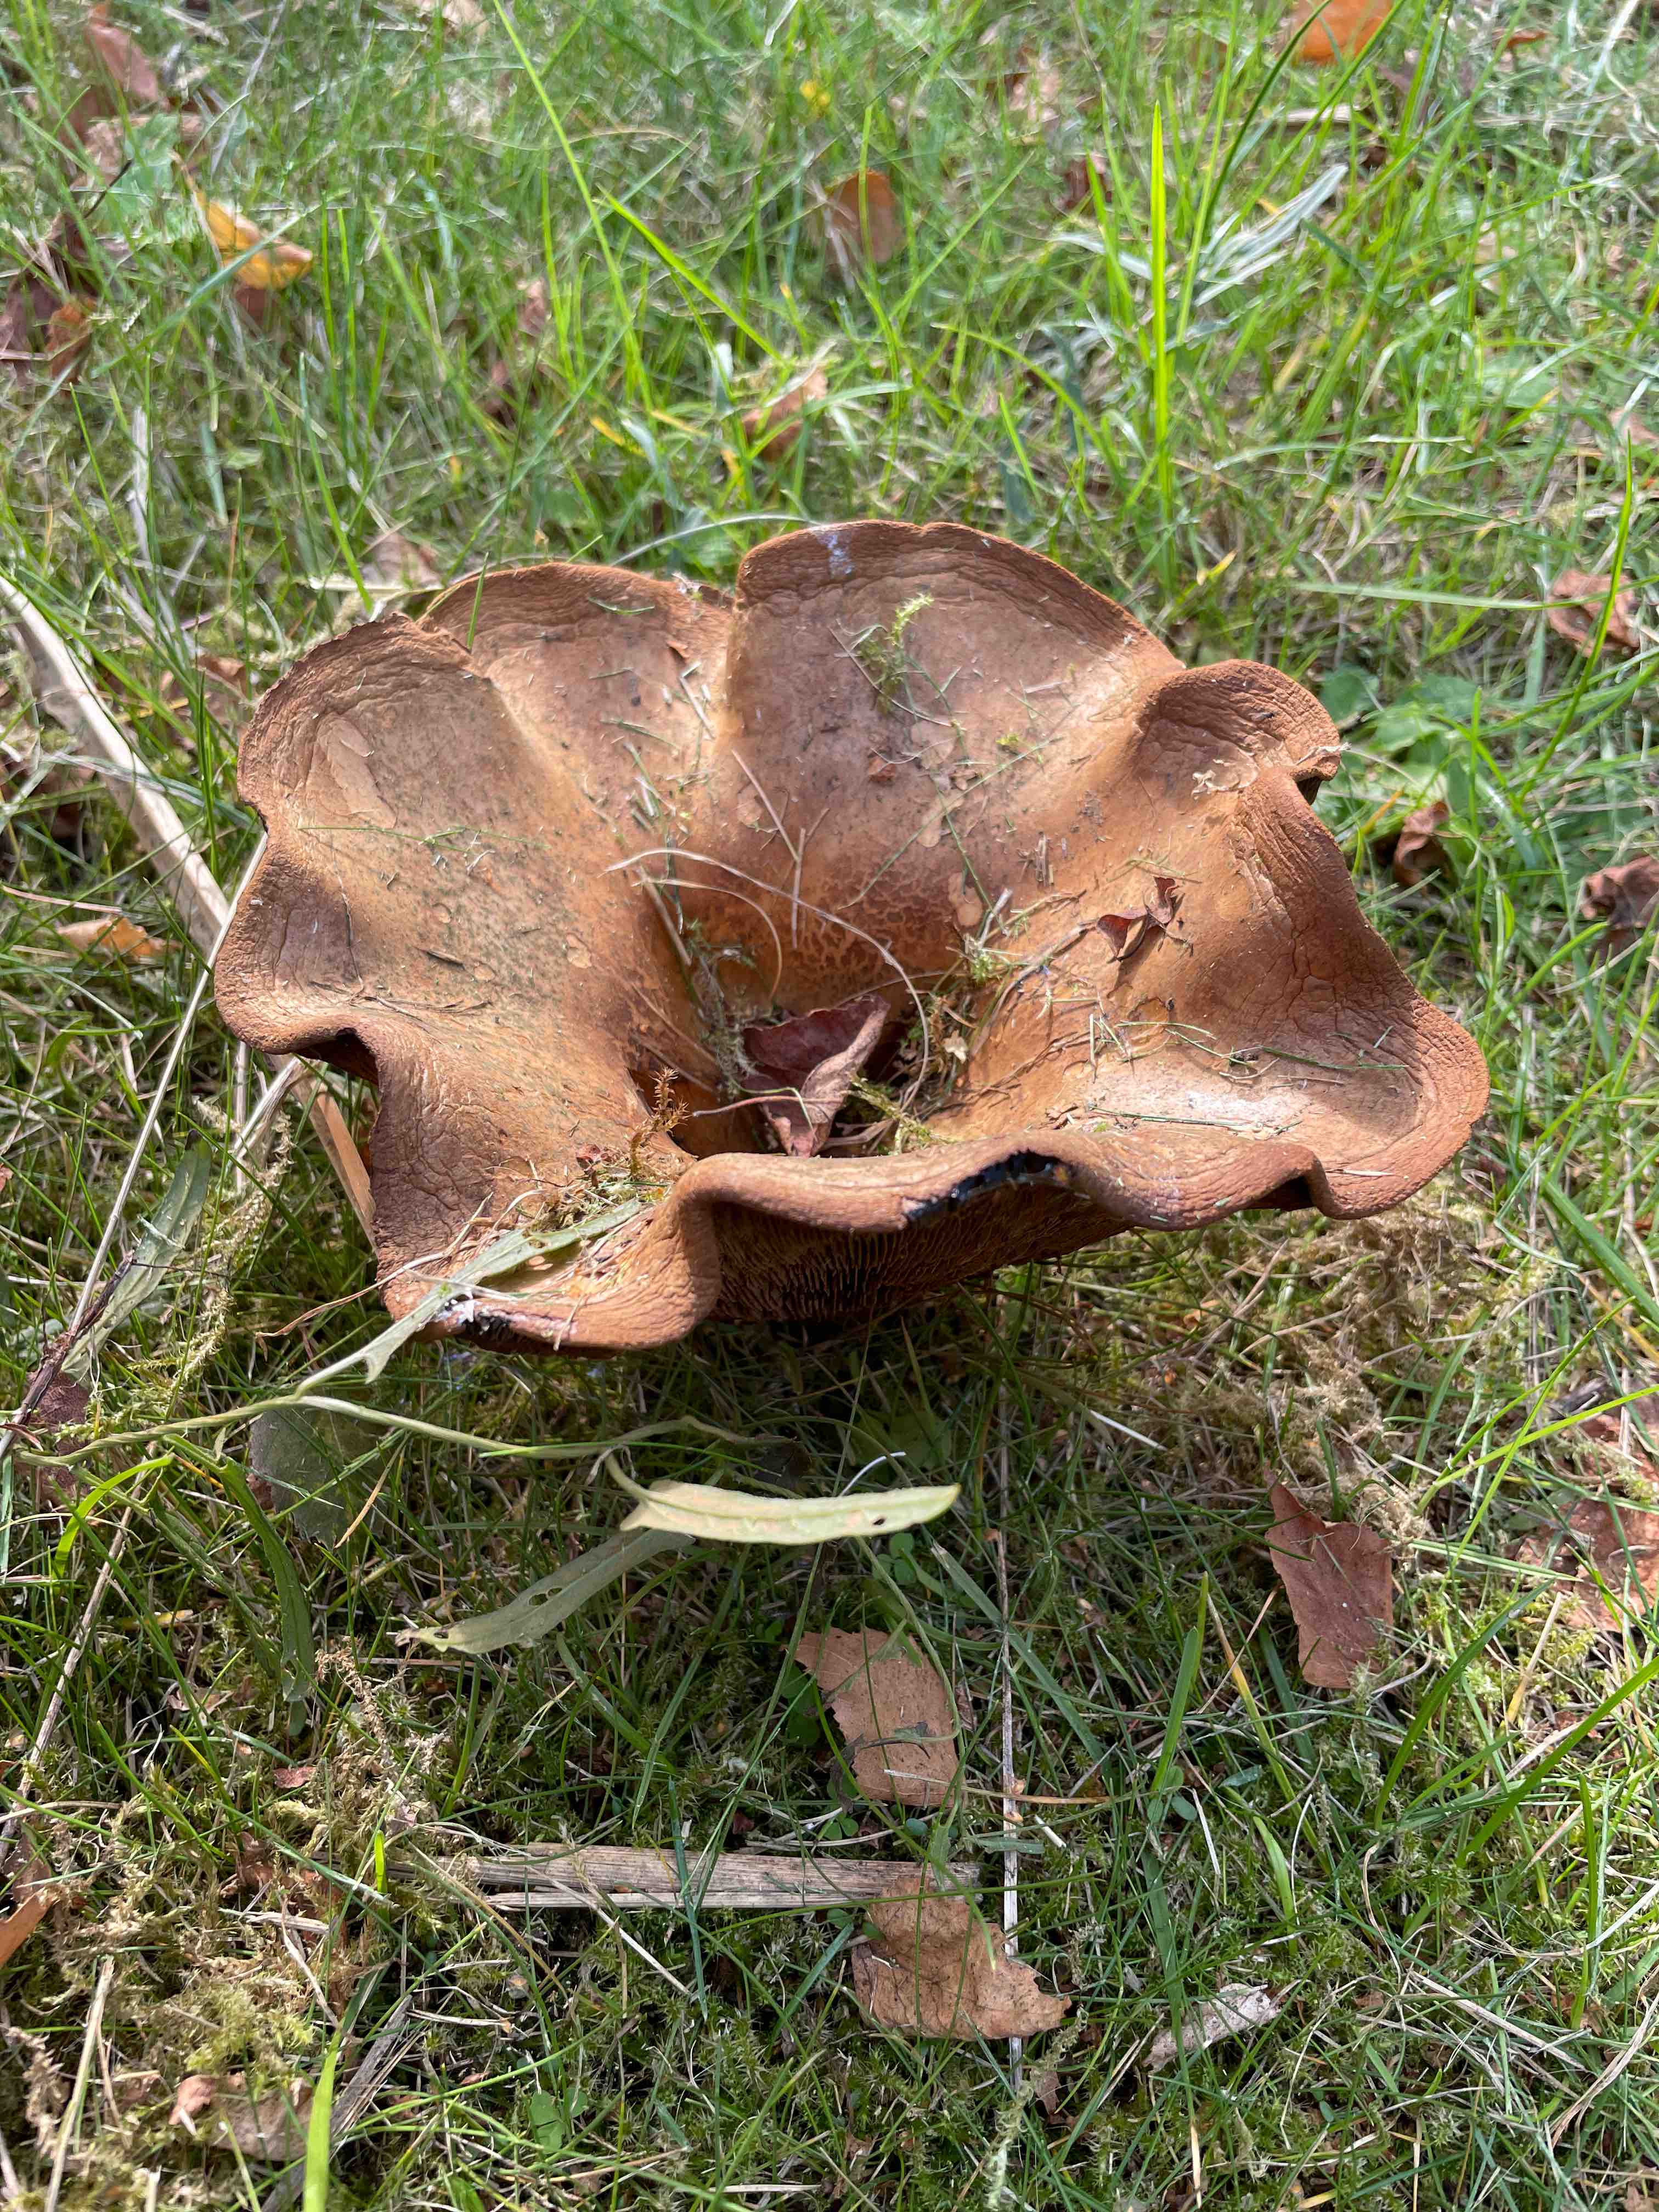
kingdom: Fungi
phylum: Basidiomycota
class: Agaricomycetes
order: Boletales
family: Paxillaceae
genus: Paxillus
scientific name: Paxillus
